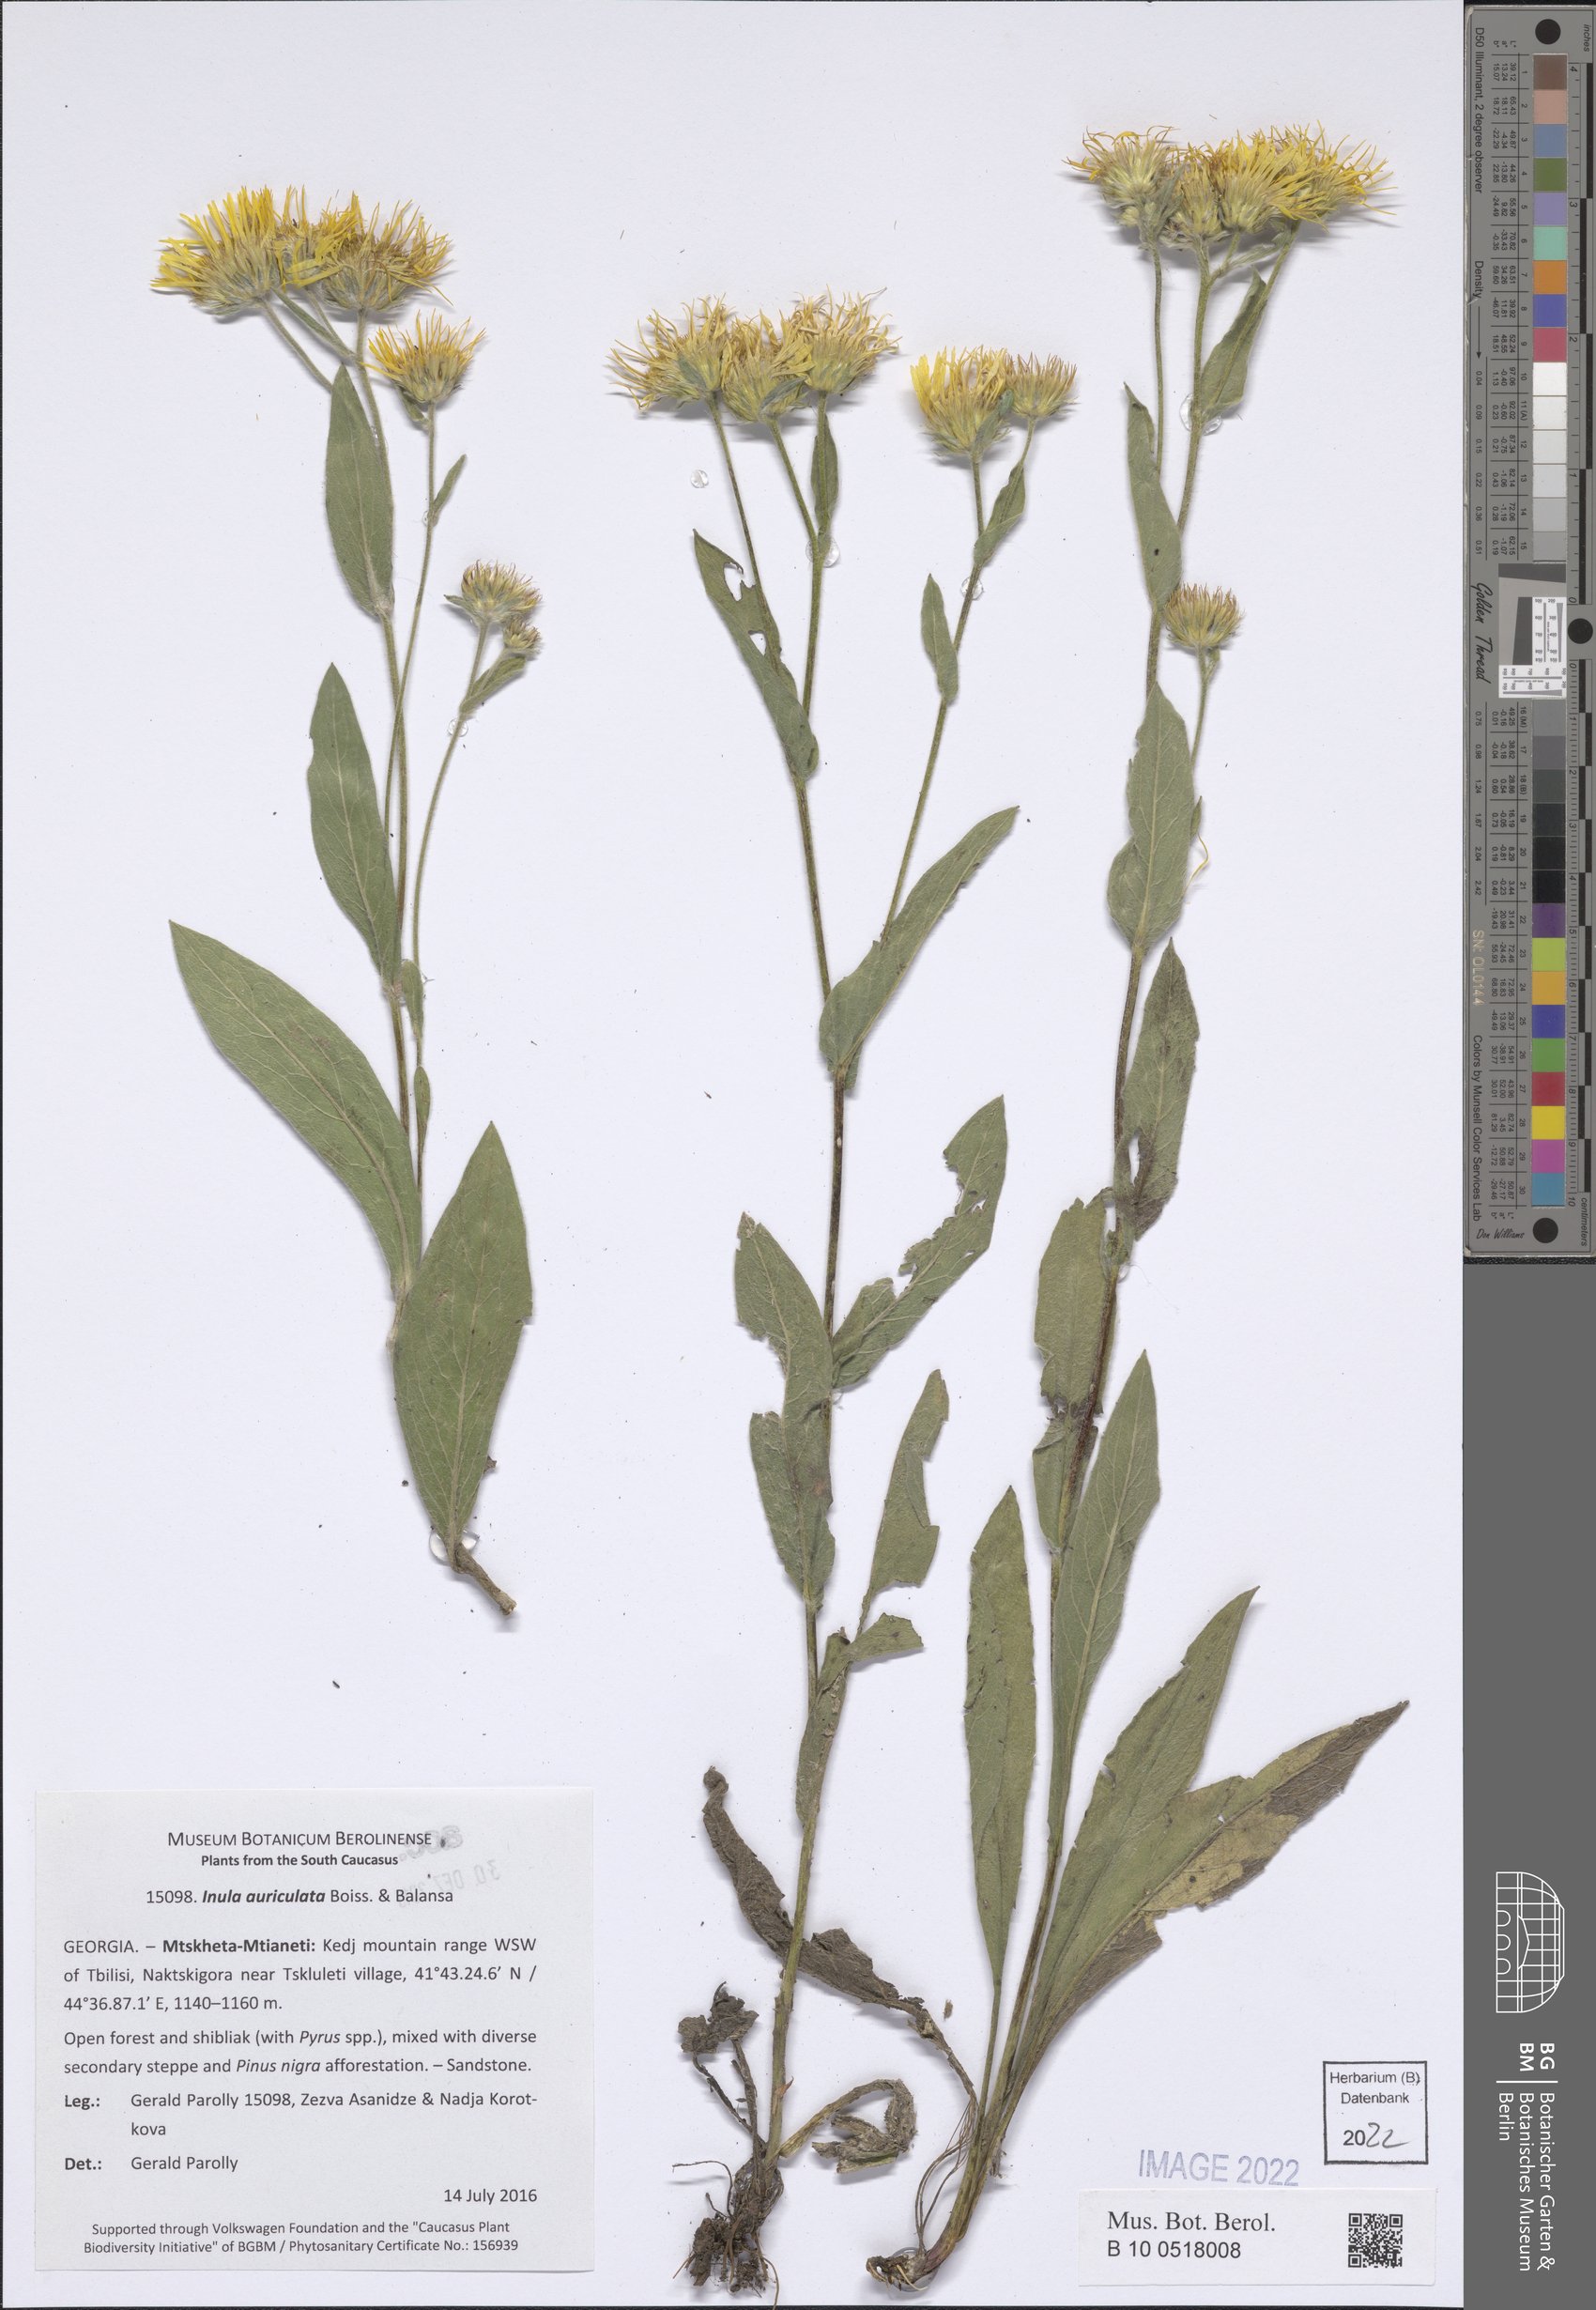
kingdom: Plantae
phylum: Tracheophyta
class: Magnoliopsida
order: Asterales
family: Asteraceae
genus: Pentanema
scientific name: Pentanema auriculatum
